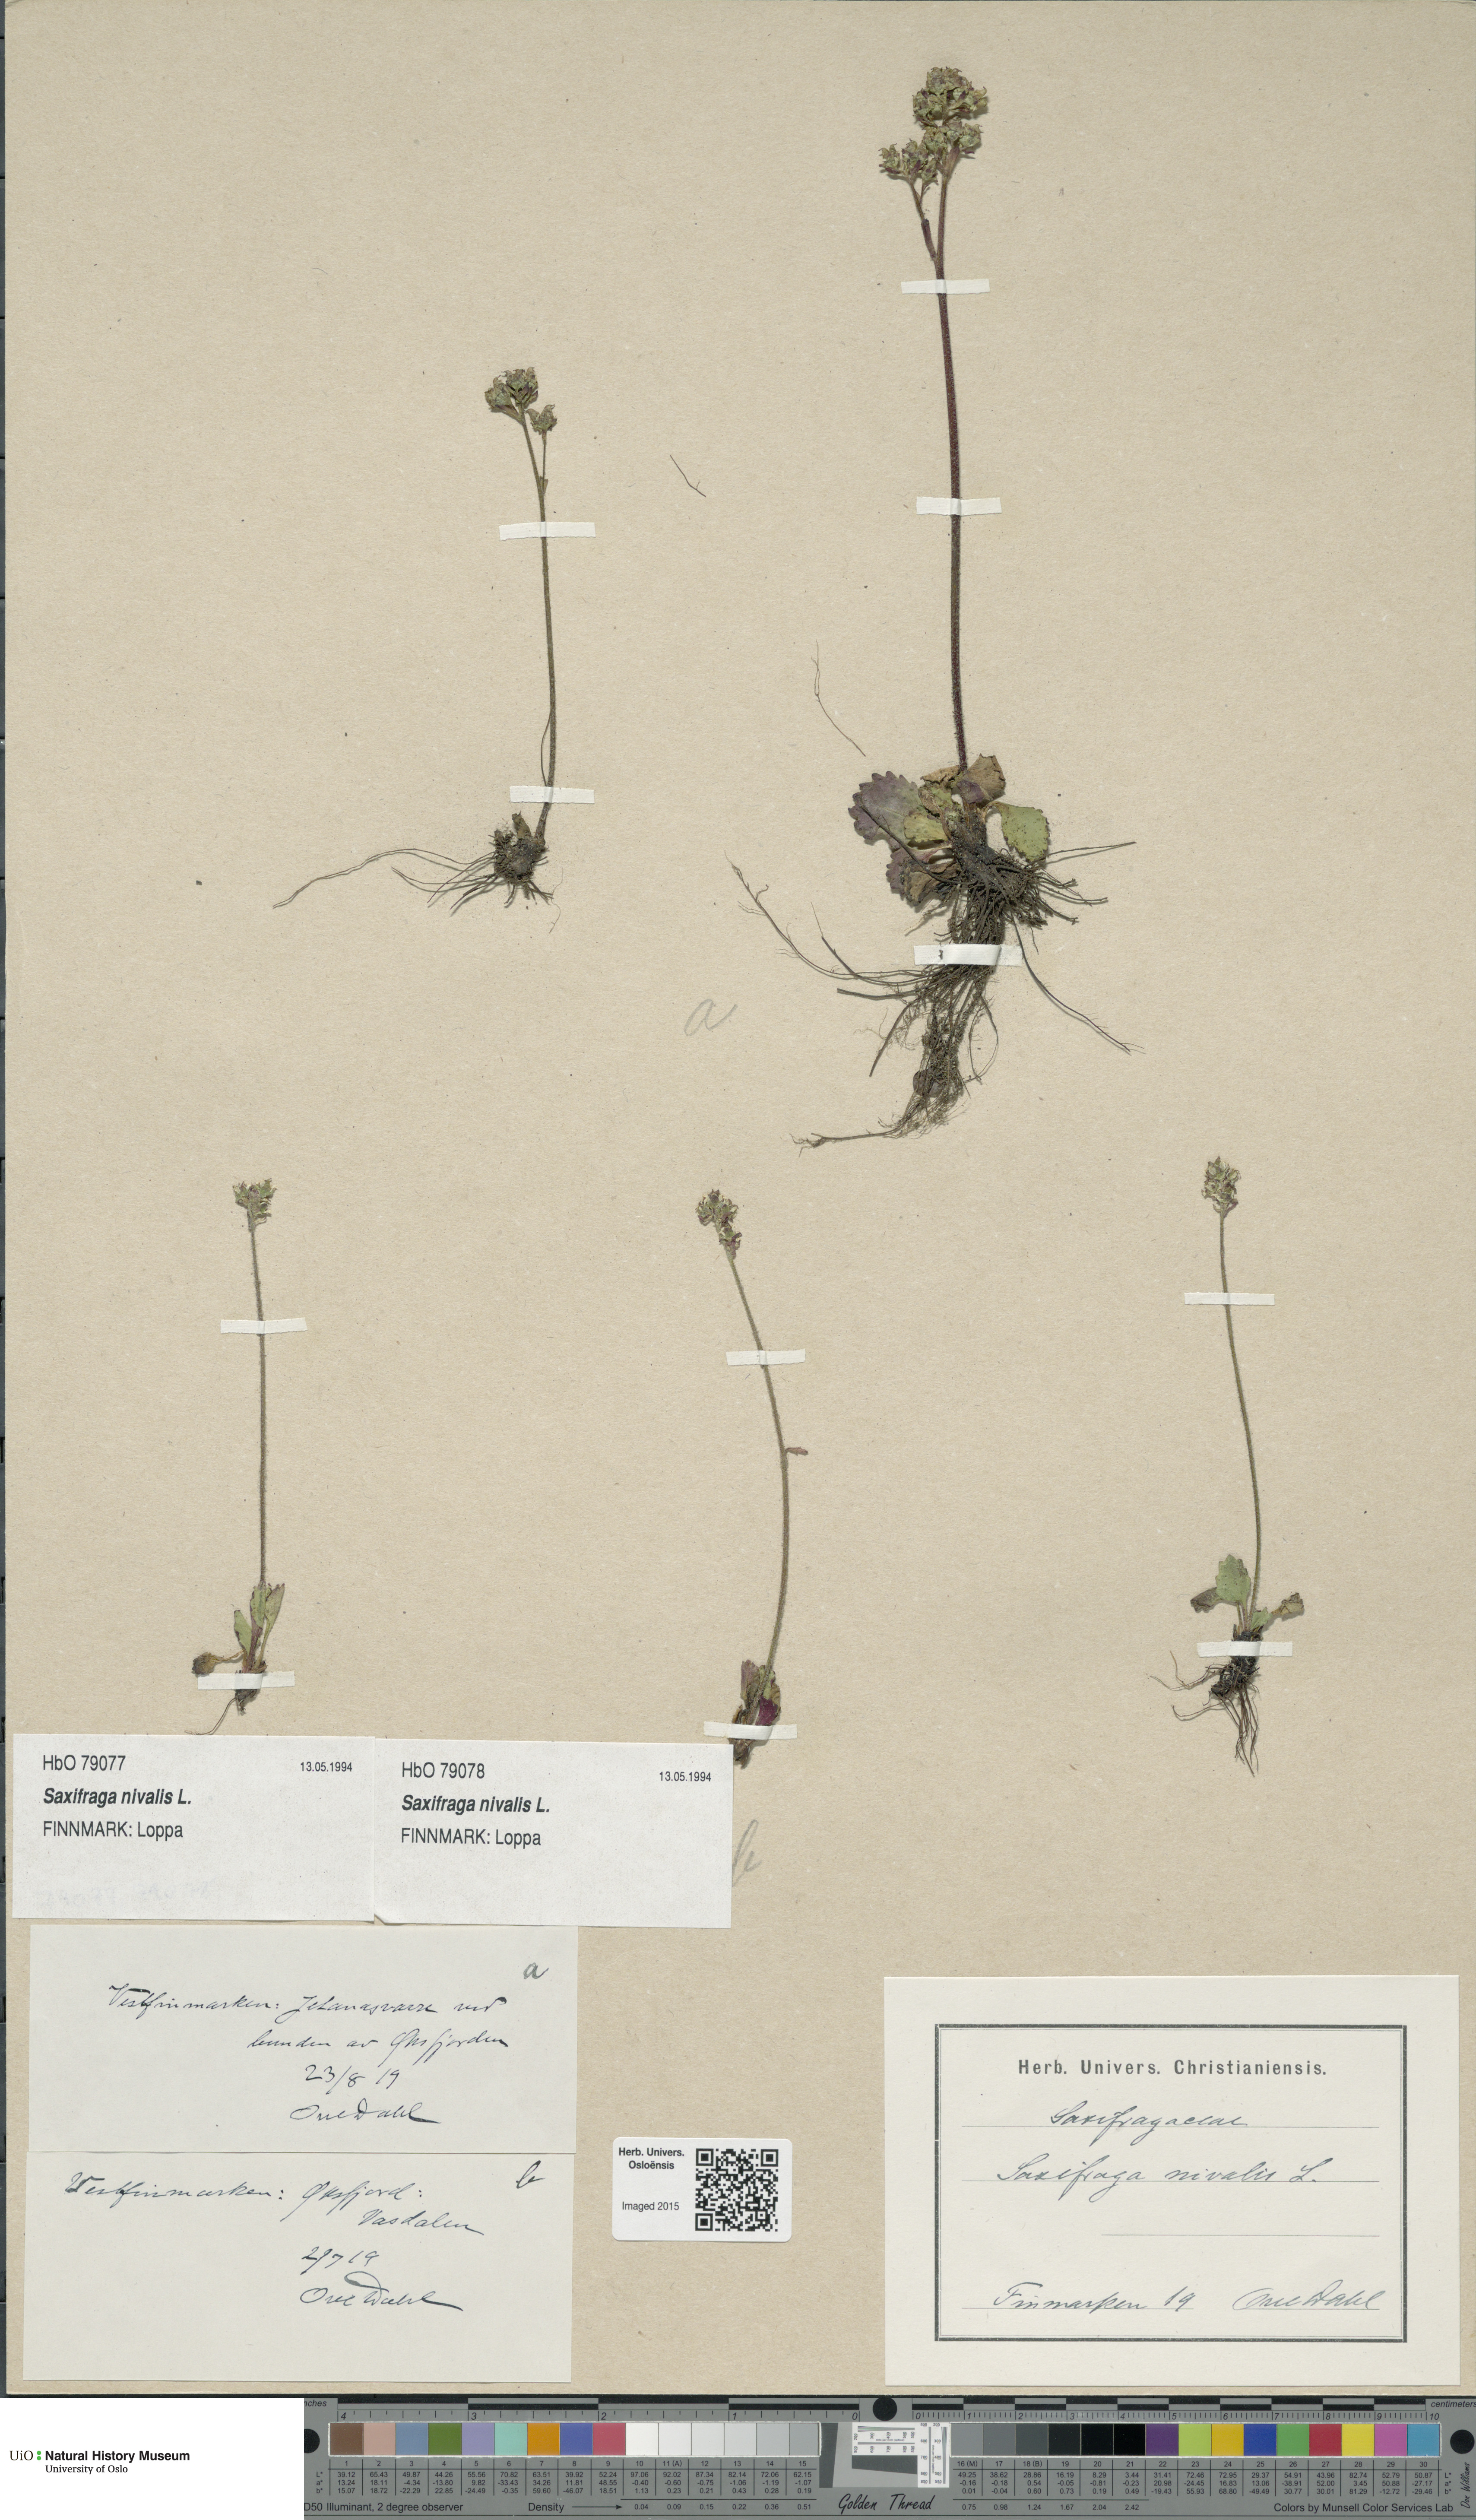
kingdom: Plantae
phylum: Tracheophyta
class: Magnoliopsida
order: Saxifragales
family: Saxifragaceae
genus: Micranthes
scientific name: Micranthes nivalis
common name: Alpine saxifrage
